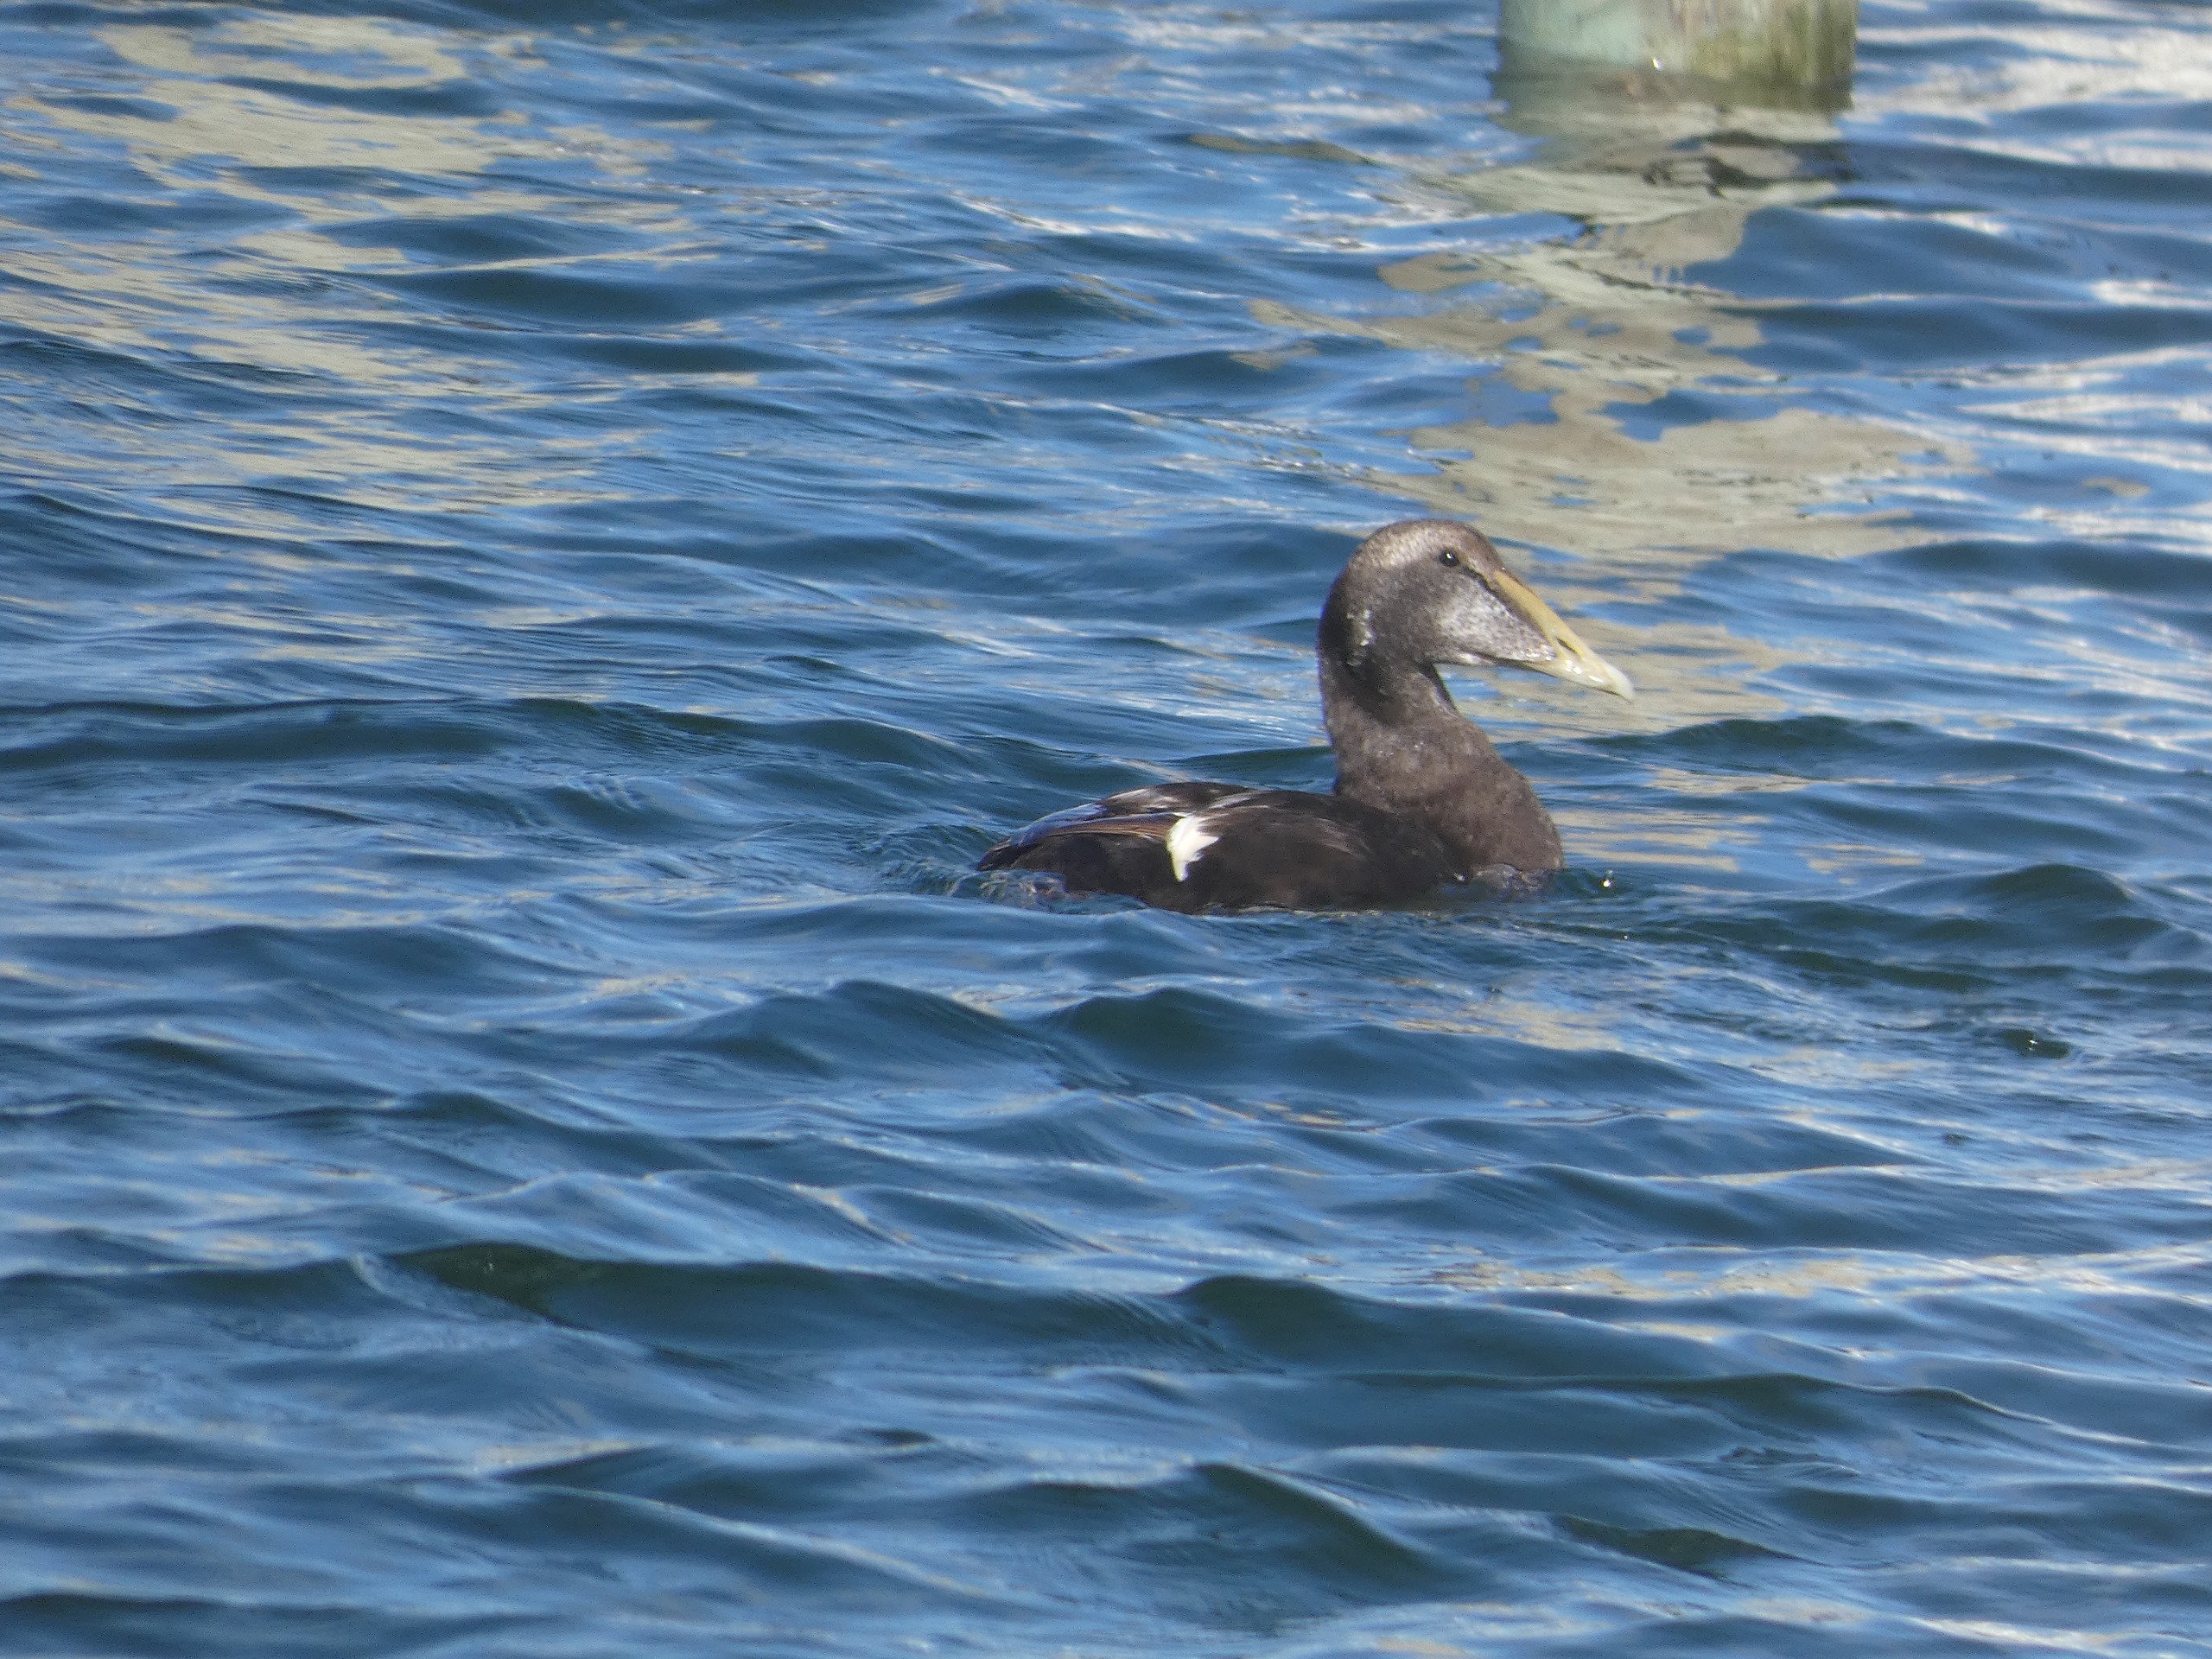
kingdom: Animalia
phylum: Chordata
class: Aves
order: Anseriformes
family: Anatidae
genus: Somateria
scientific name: Somateria mollissima
